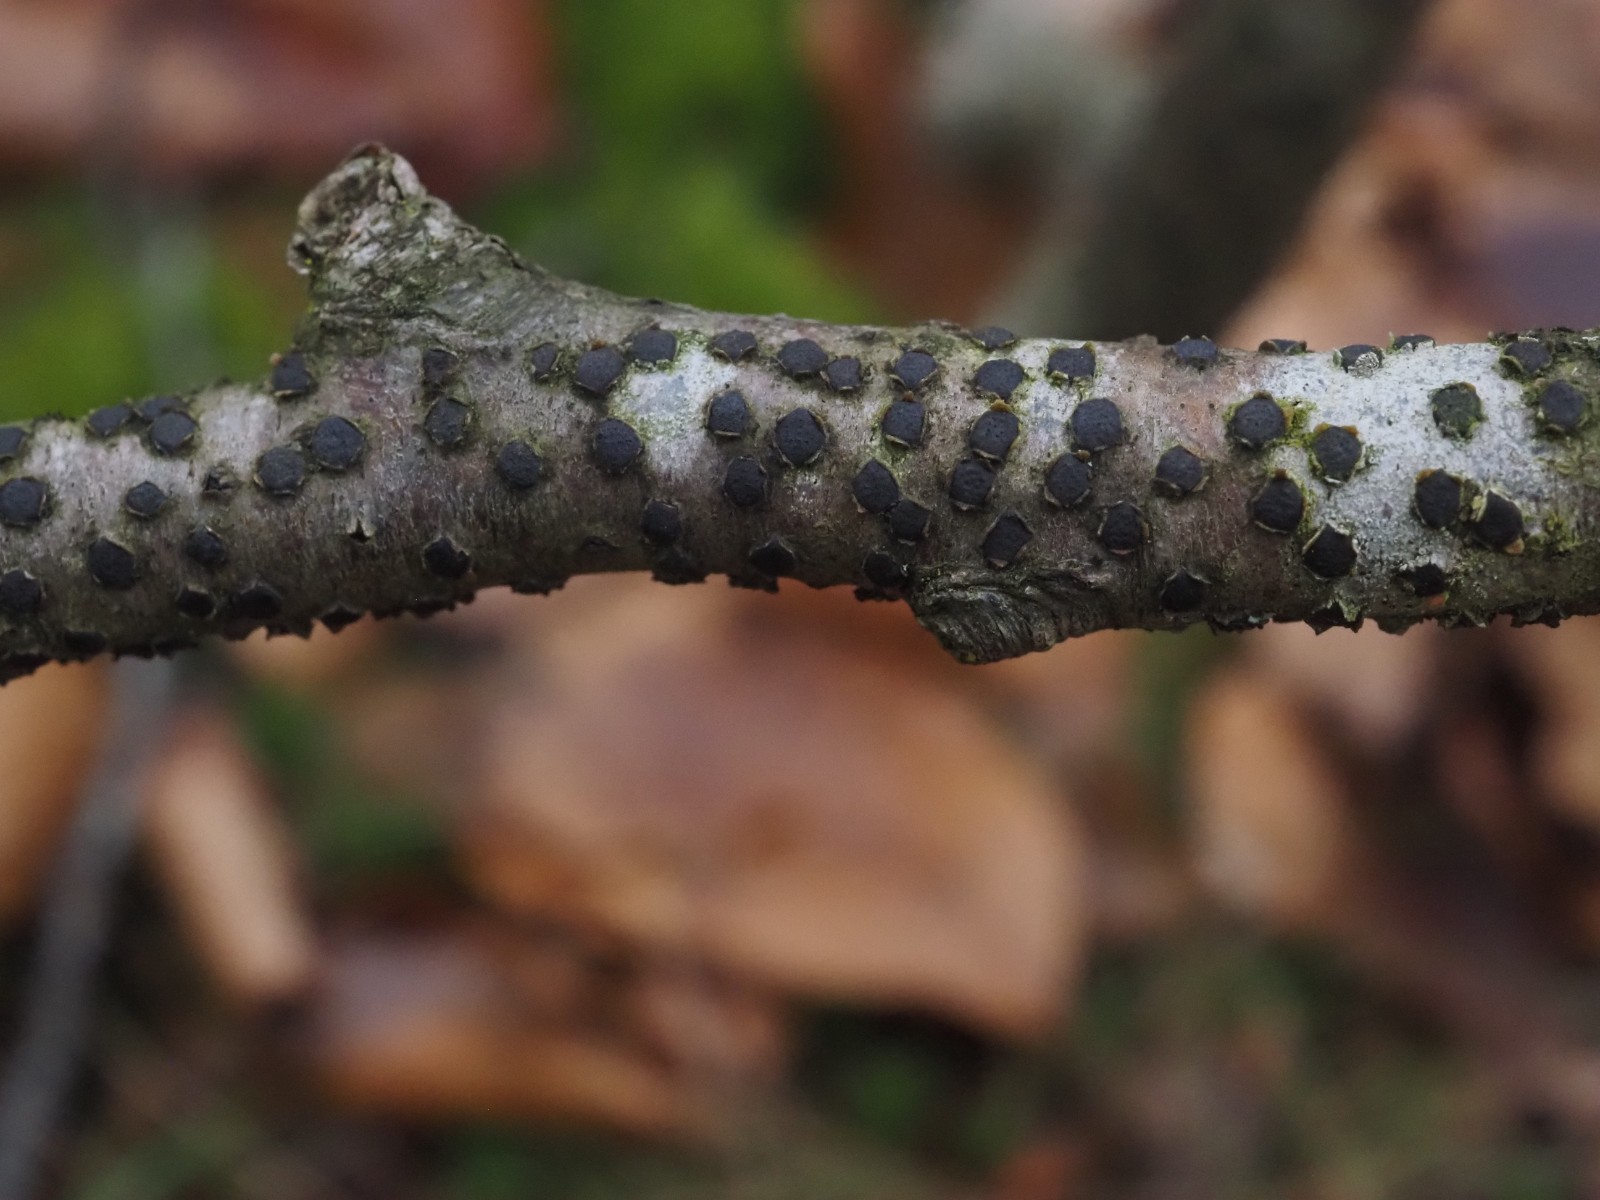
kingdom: Fungi
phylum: Ascomycota
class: Sordariomycetes
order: Xylariales
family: Diatrypaceae
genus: Diatrype
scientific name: Diatrype disciformis
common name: kant-kulskorpe
